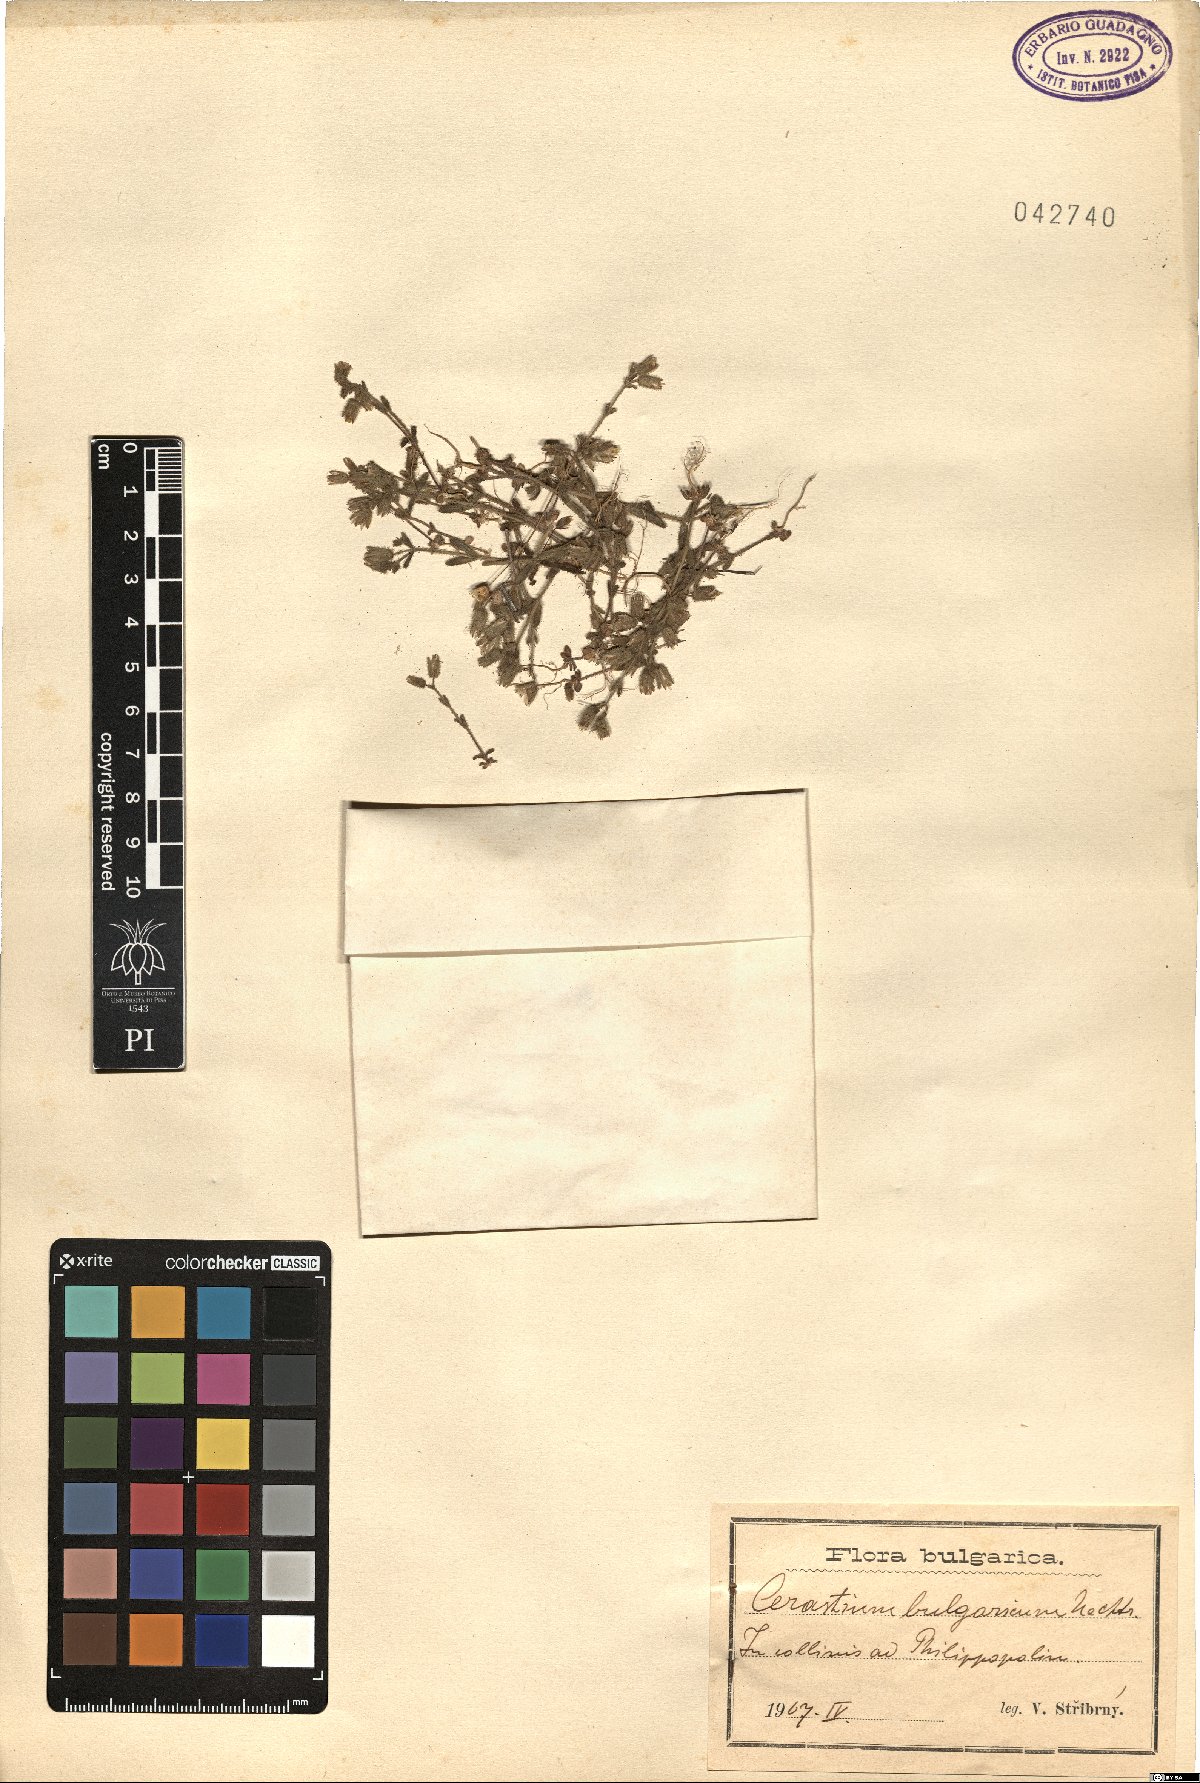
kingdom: Plantae
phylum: Tracheophyta
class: Magnoliopsida
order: Caryophyllales
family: Caryophyllaceae
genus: Cerastium
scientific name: Cerastium ramosissimum
